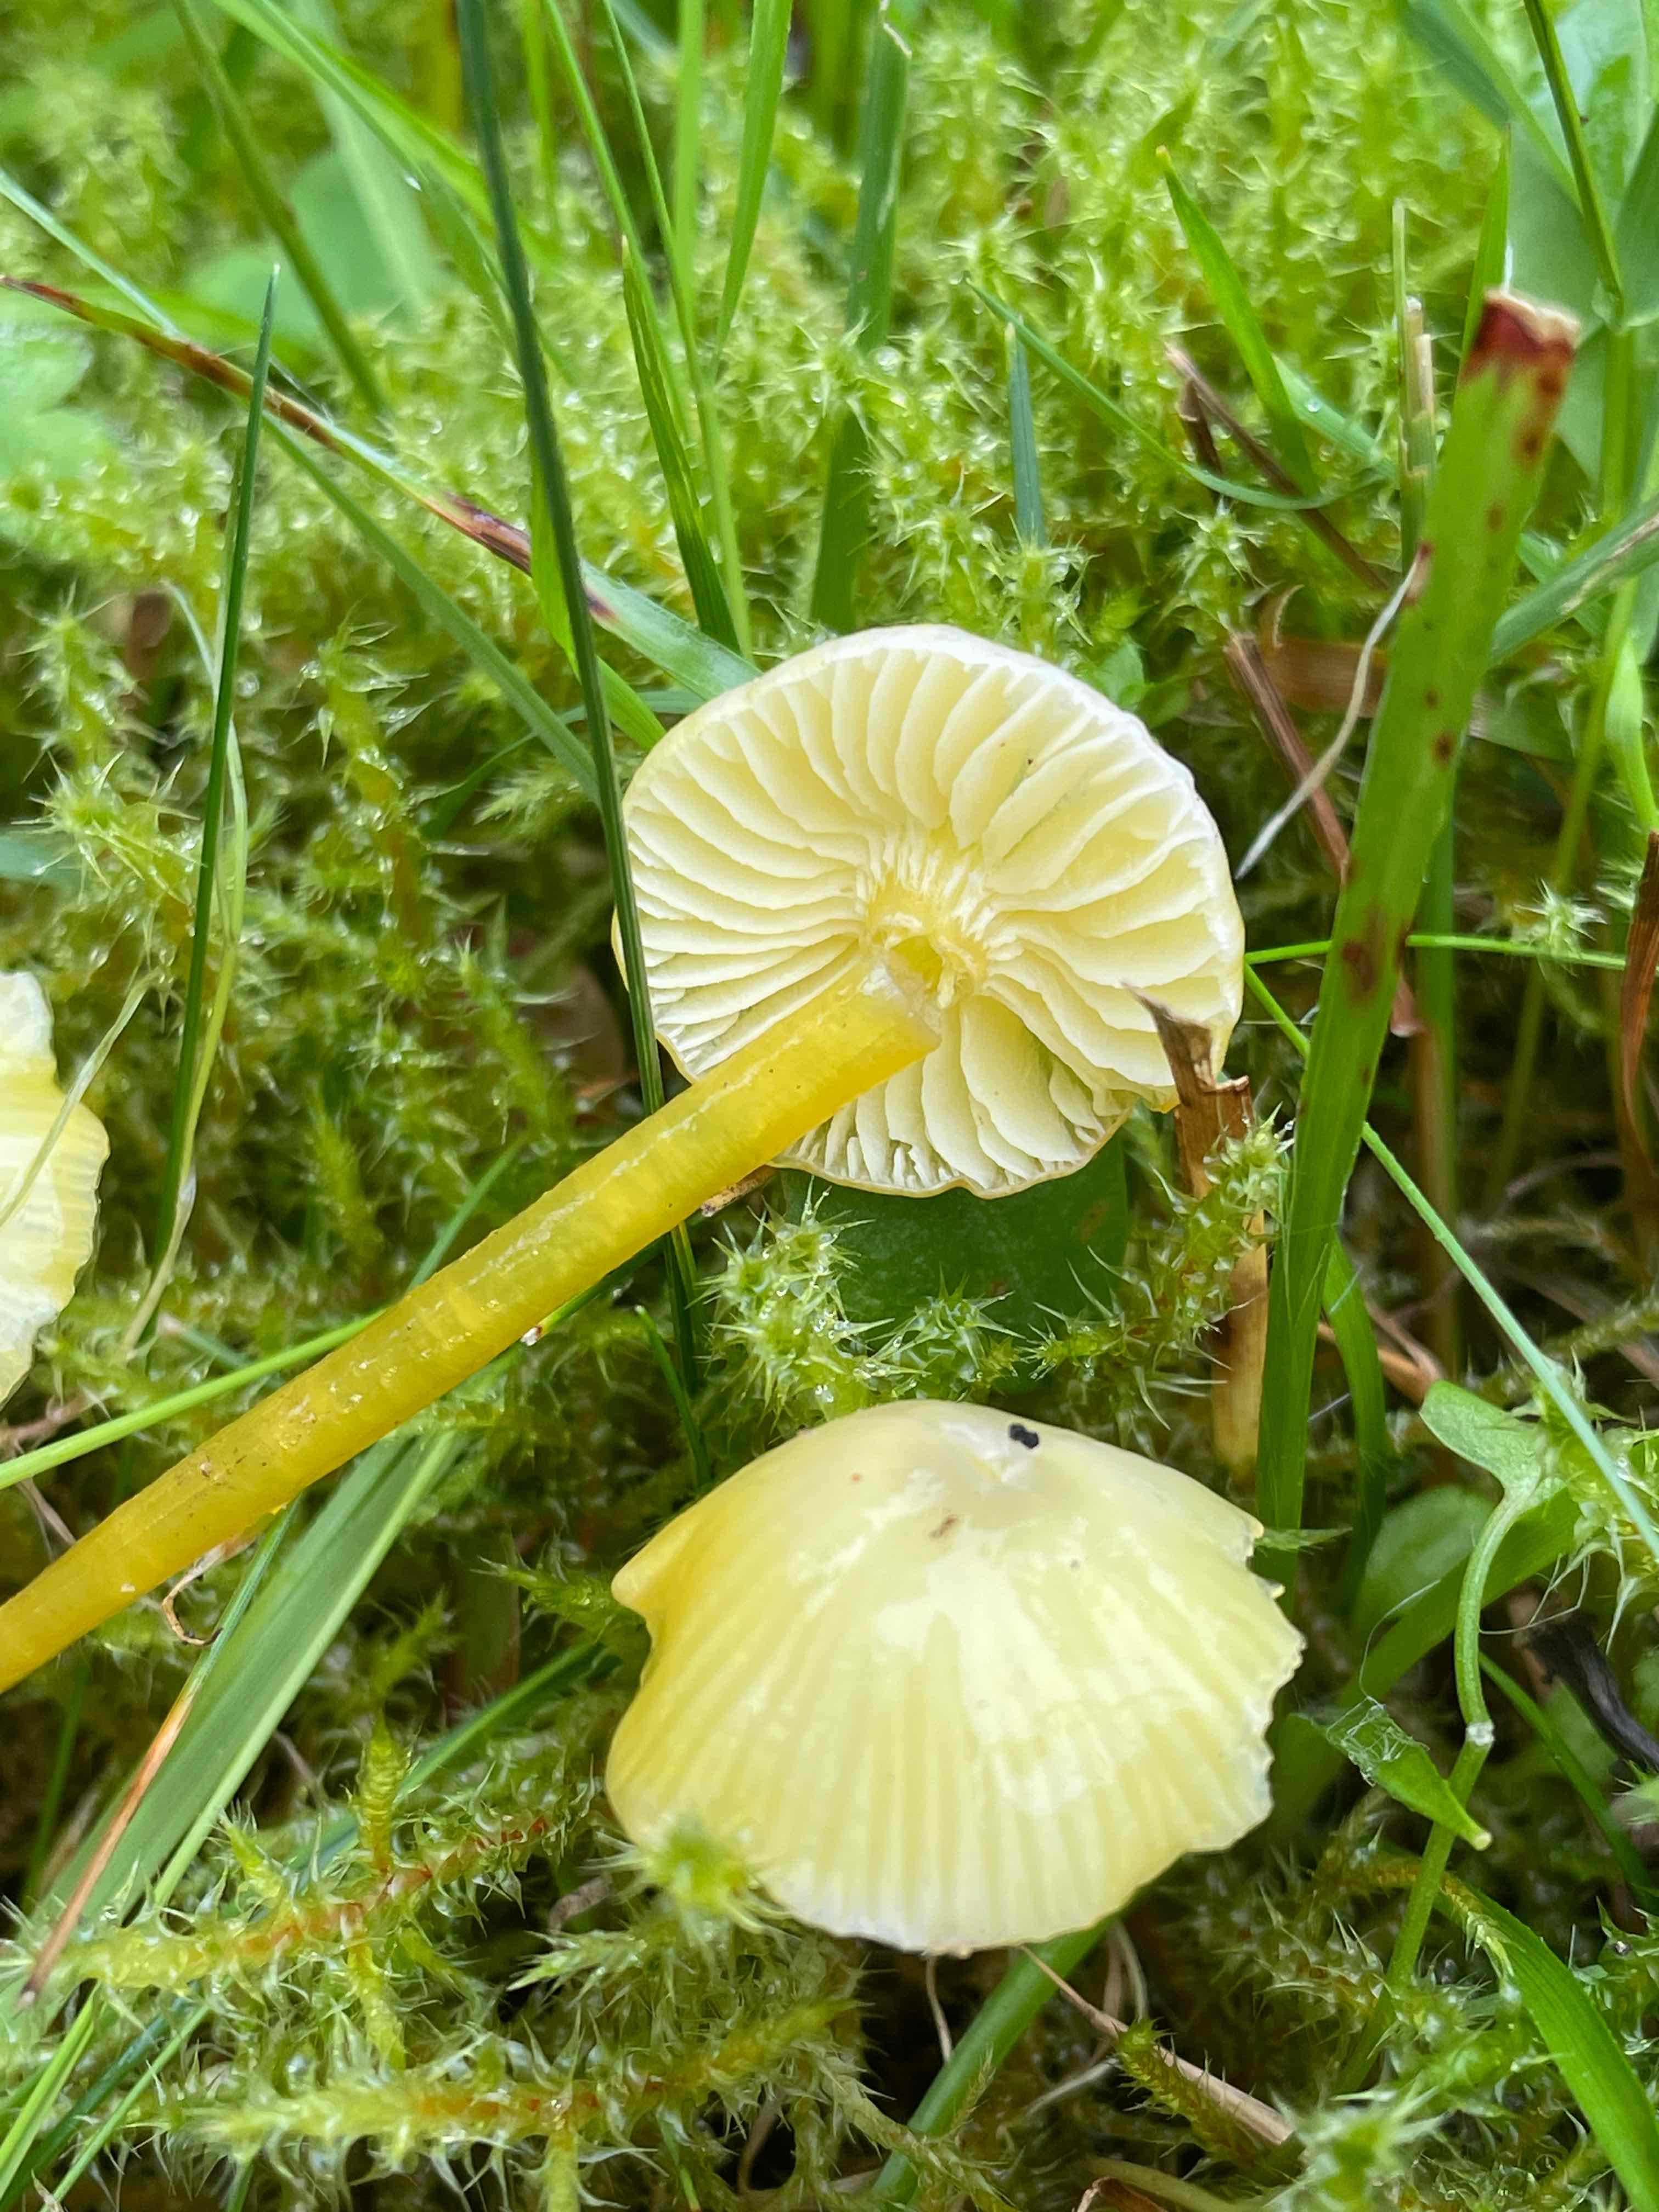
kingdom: Fungi
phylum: Basidiomycota
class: Agaricomycetes
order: Agaricales
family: Hygrophoraceae
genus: Hygrocybe
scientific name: Hygrocybe glutinipes
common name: slimstokket vokshat
